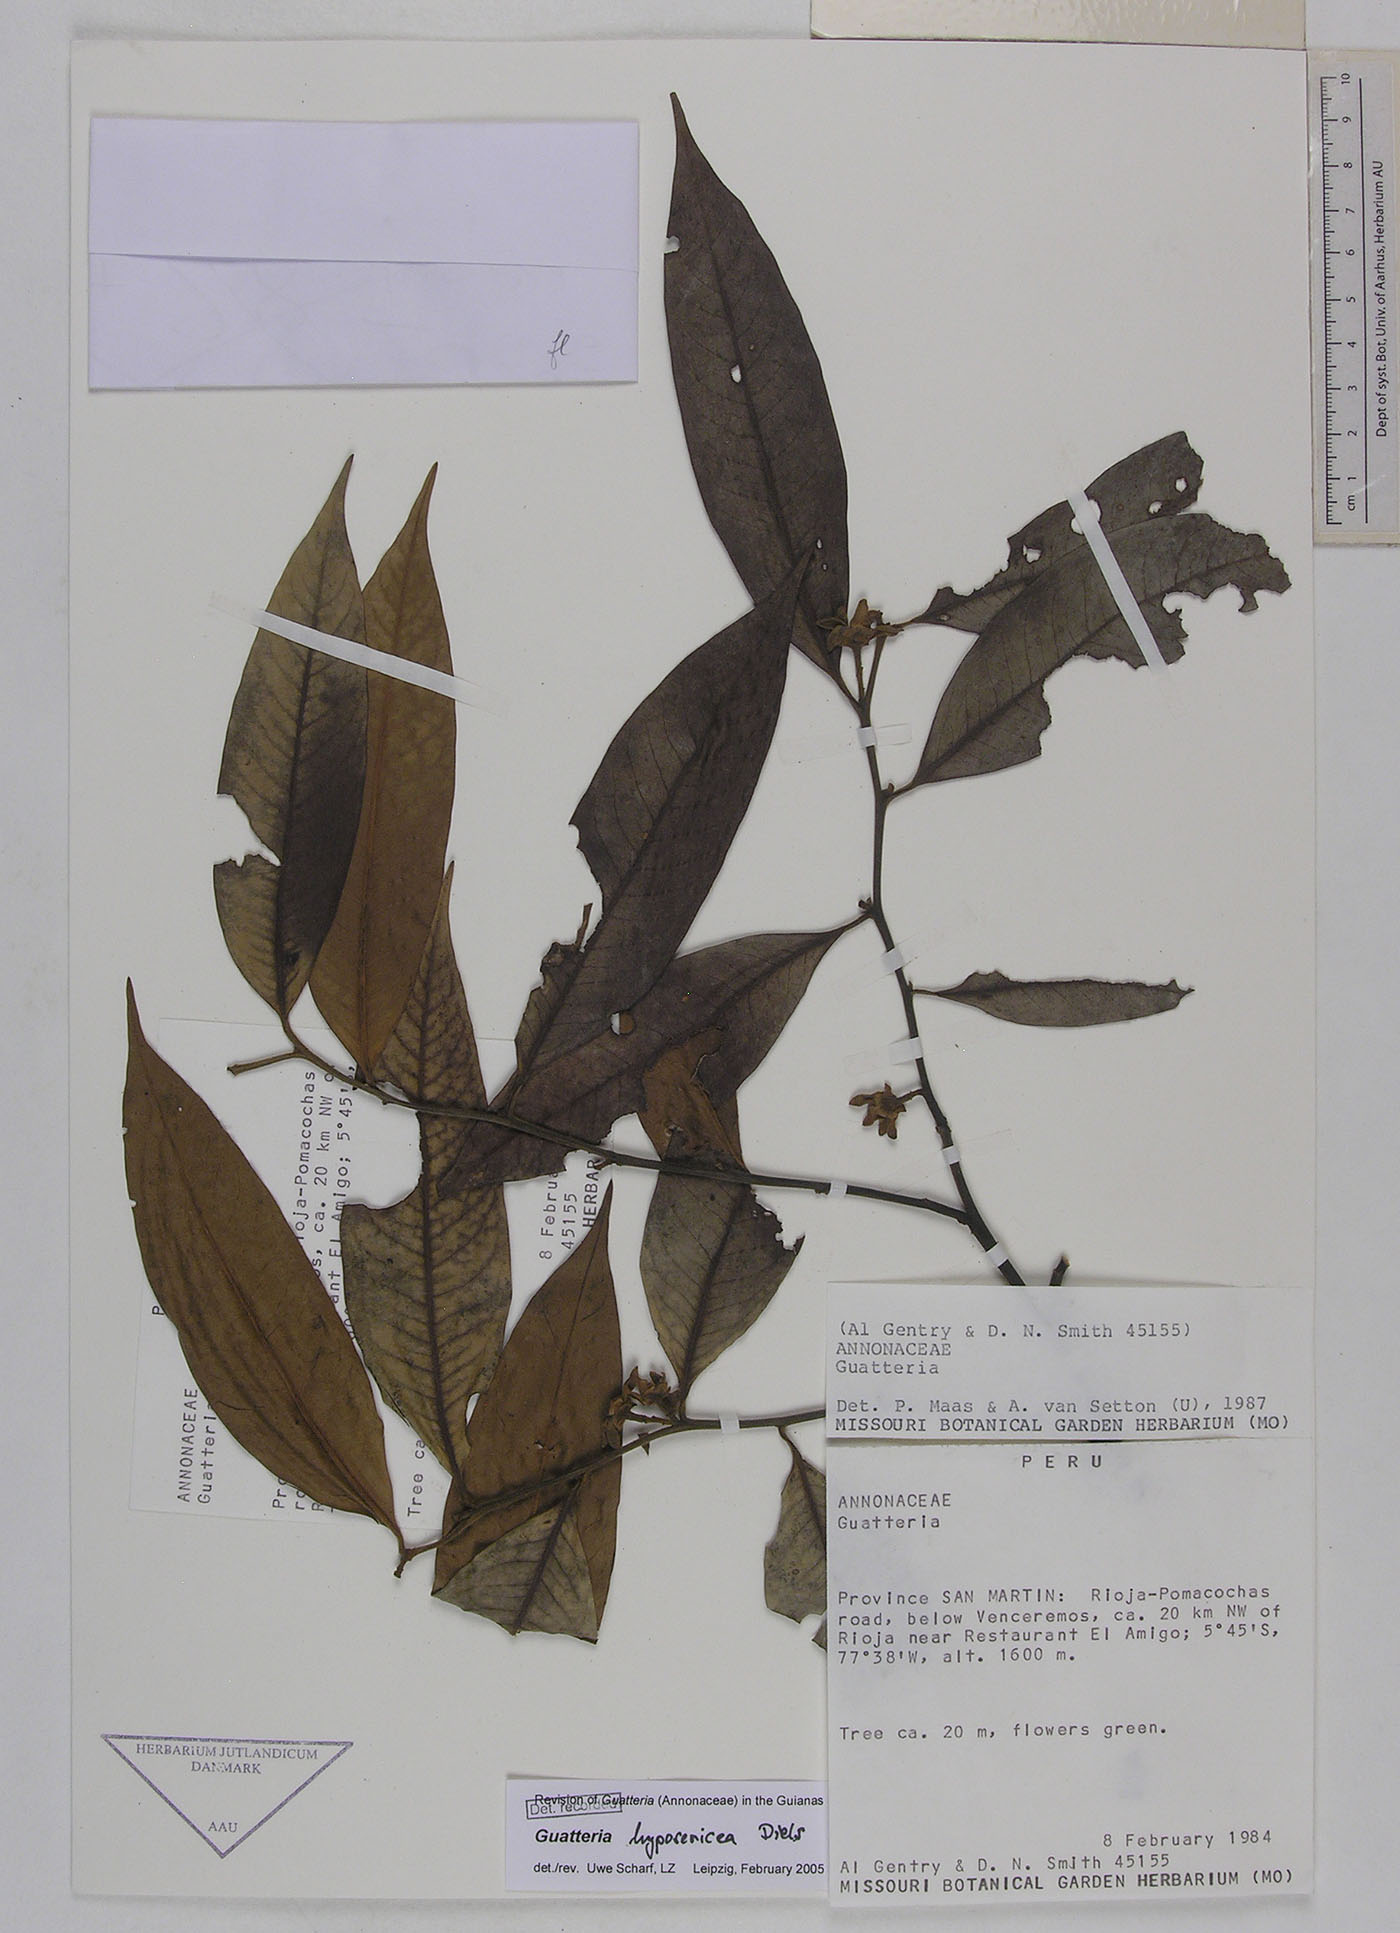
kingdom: Plantae
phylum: Tracheophyta
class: Magnoliopsida
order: Magnoliales
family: Annonaceae
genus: Guatteria
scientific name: Guatteria scytophylla
